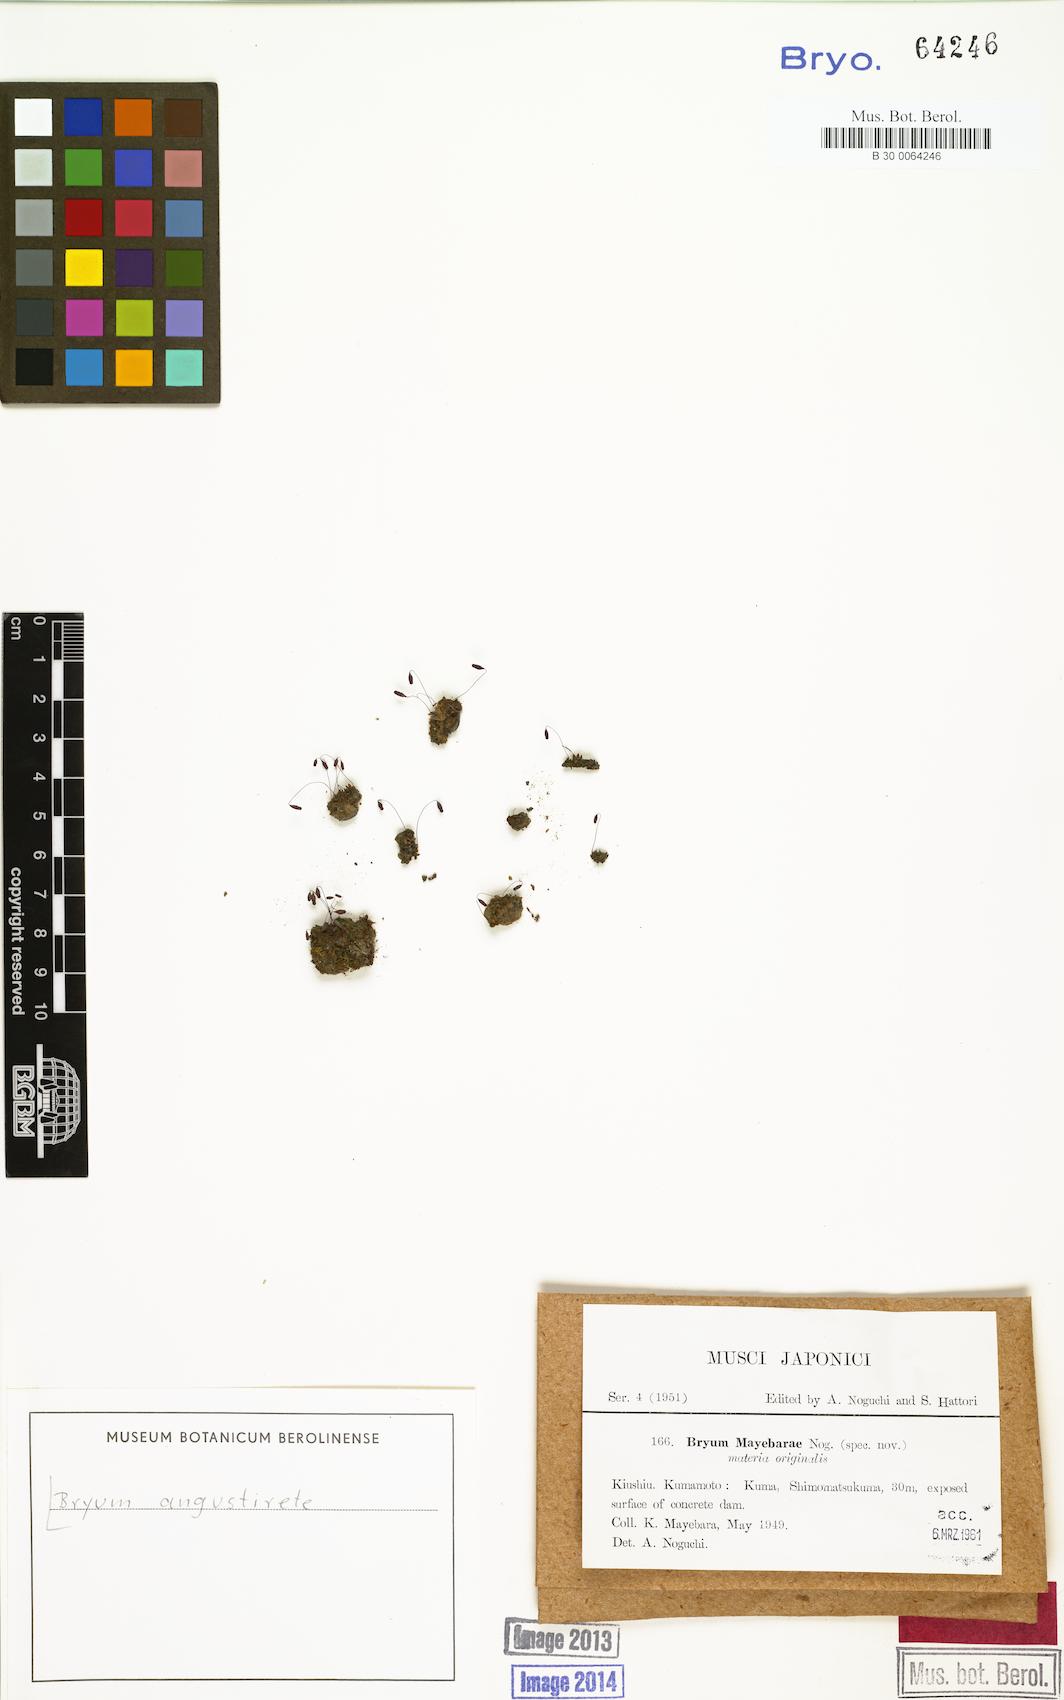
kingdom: Plantae
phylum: Bryophyta
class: Bryopsida
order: Bryales
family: Bryaceae
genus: Ptychostomum
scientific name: Ptychostomum compactum
